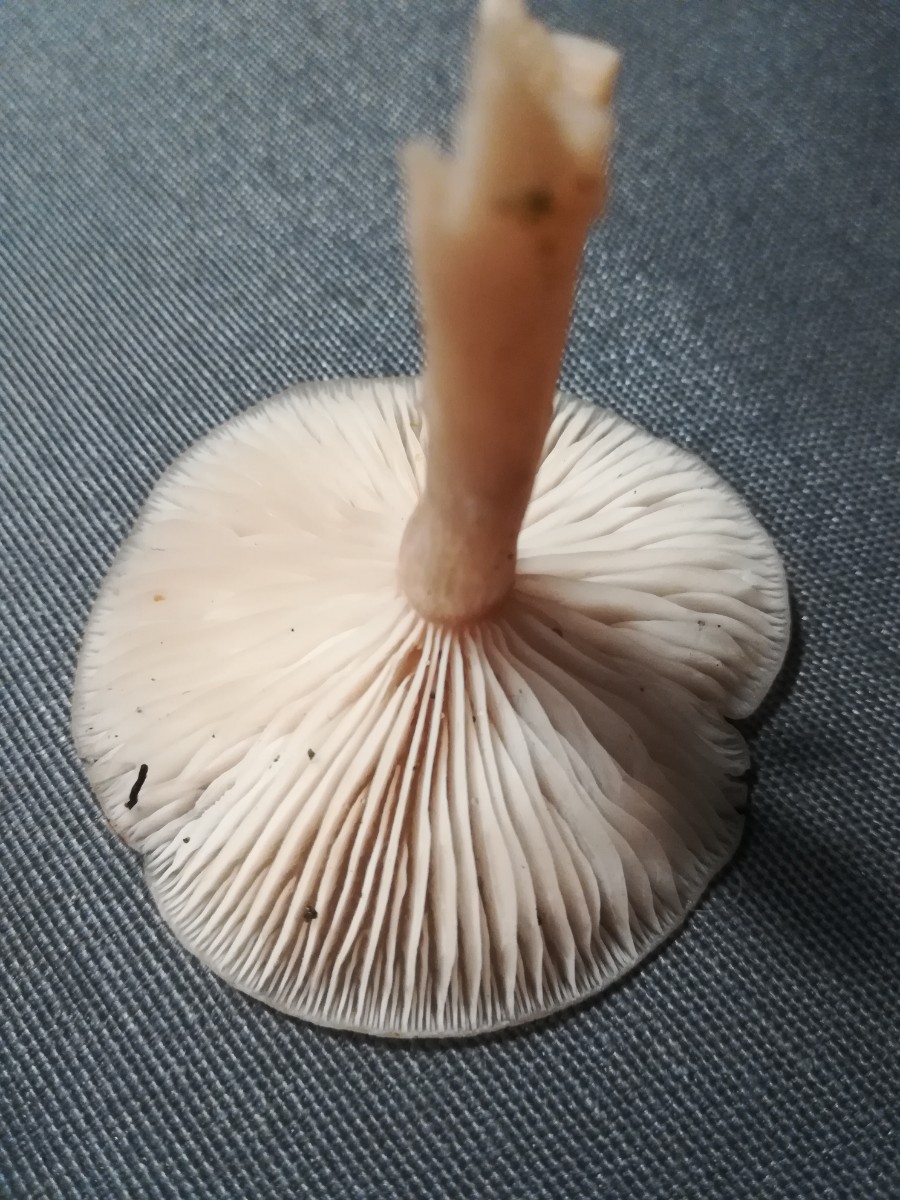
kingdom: Fungi
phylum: Basidiomycota
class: Agaricomycetes
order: Agaricales
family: Tricholomataceae
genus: Clitocybe
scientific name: Clitocybe fragrans
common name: vellugtende tragthat
